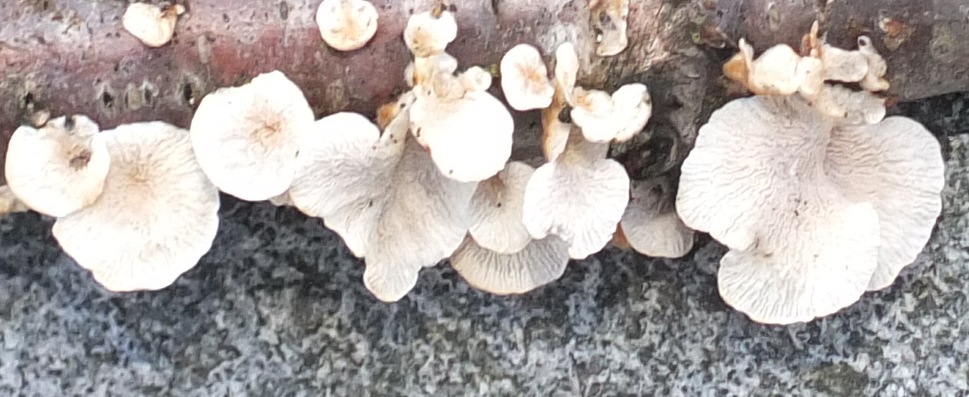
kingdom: Fungi
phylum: Basidiomycota
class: Agaricomycetes
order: Amylocorticiales
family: Amylocorticiaceae
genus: Plicaturopsis
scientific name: Plicaturopsis crispa
